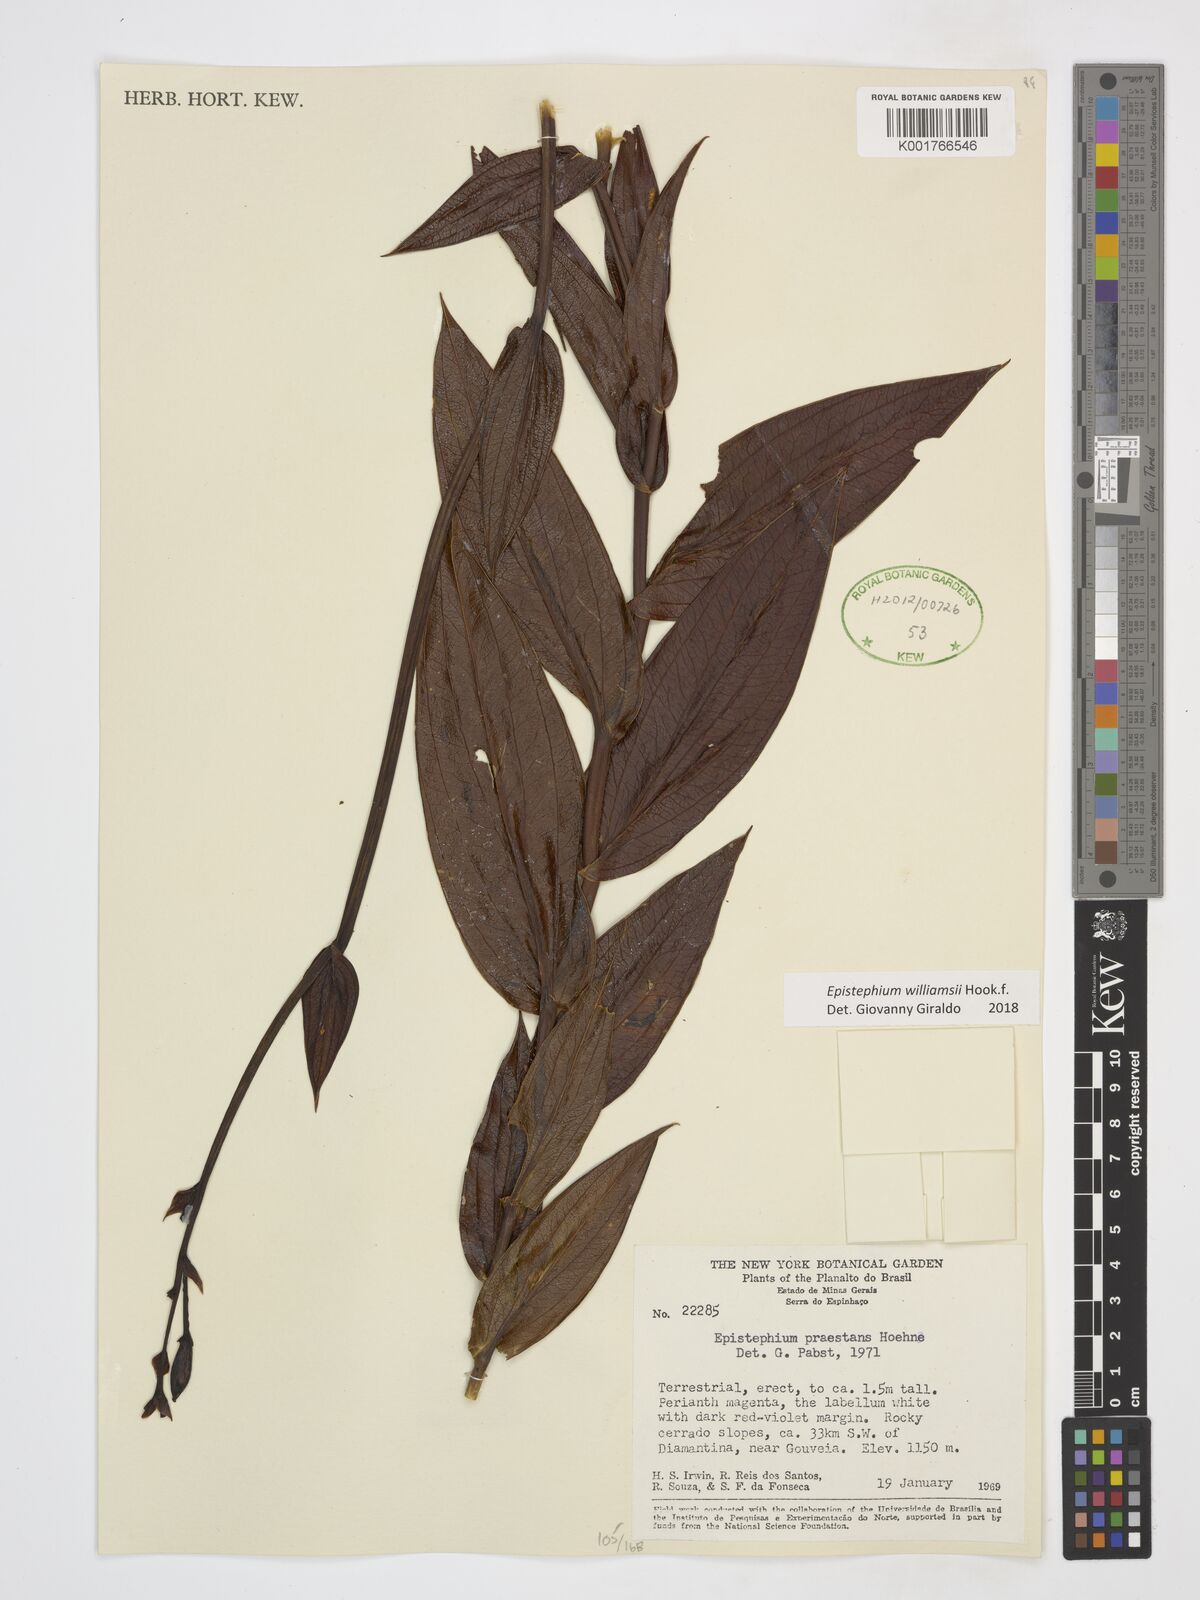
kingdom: Plantae
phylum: Tracheophyta
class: Liliopsida
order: Asparagales
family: Orchidaceae
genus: Epistephium
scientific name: Epistephium williamsii
